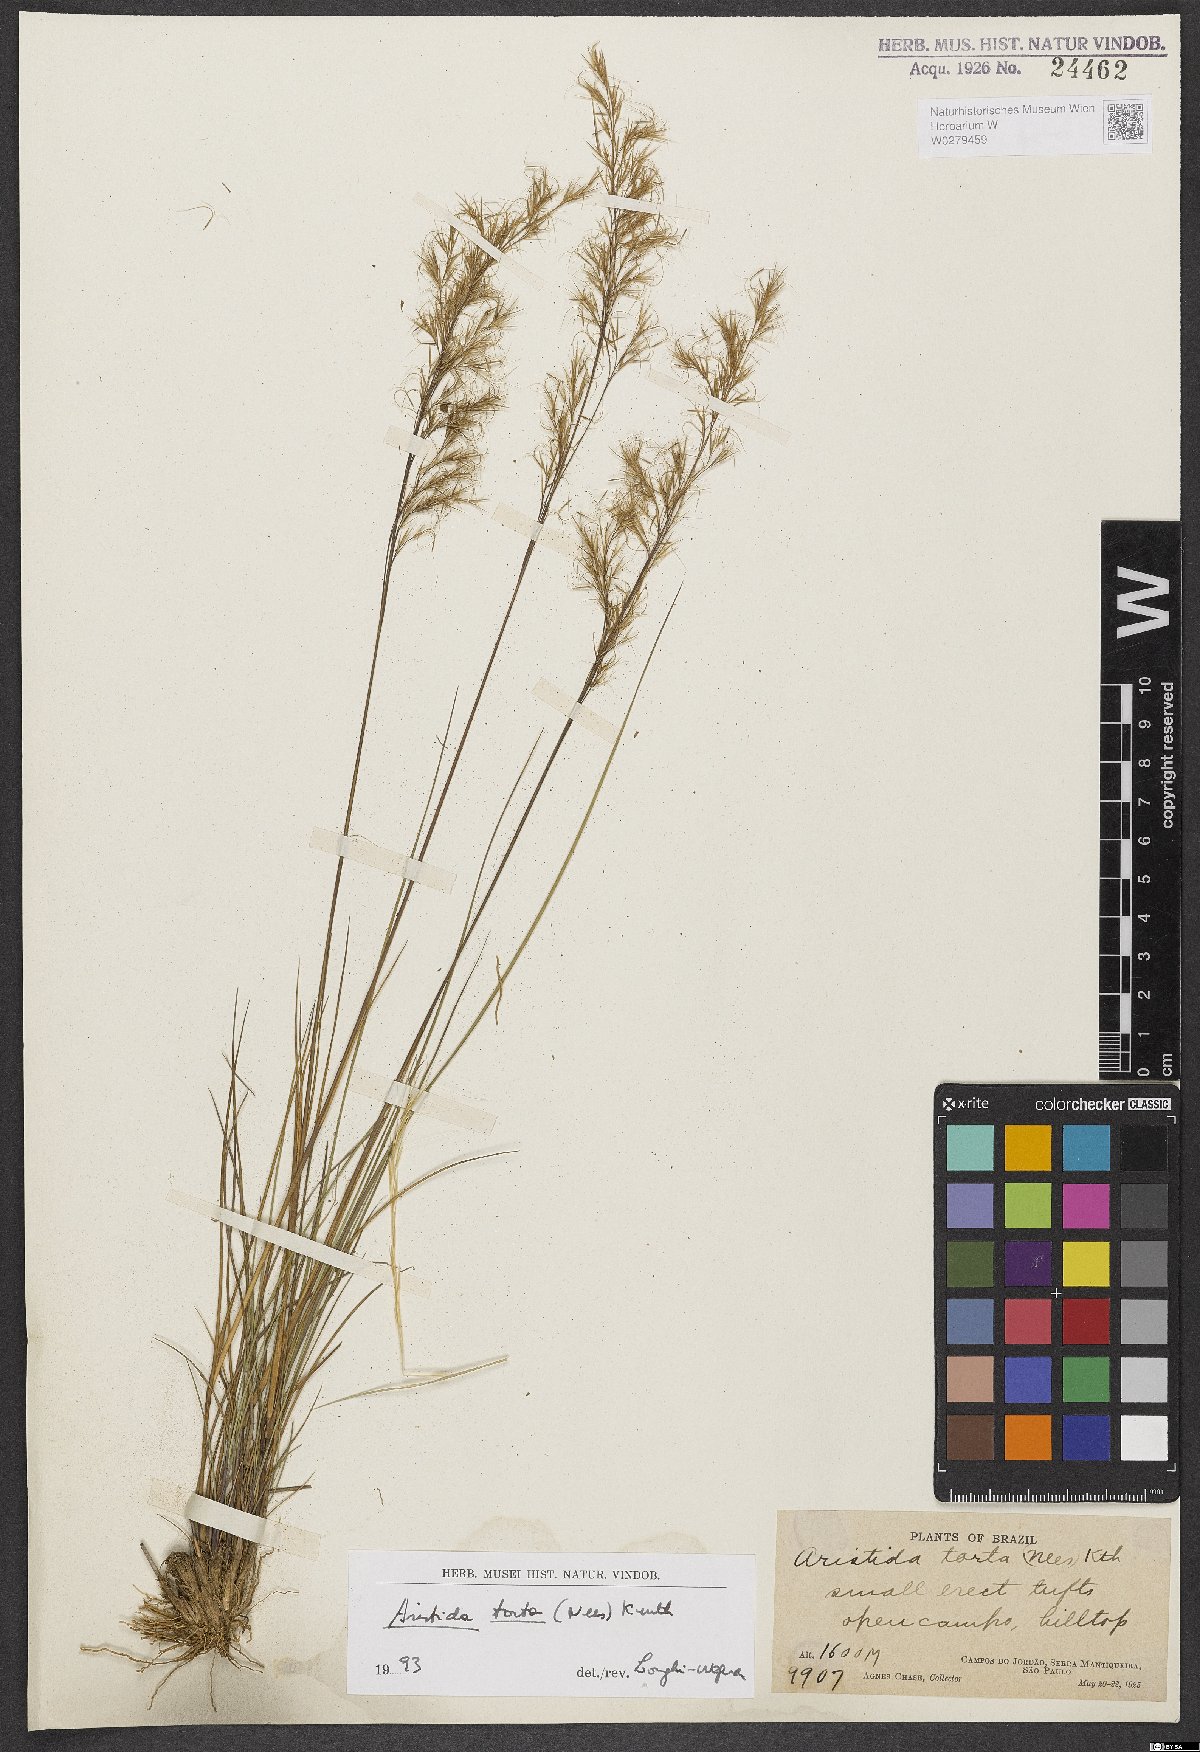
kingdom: Plantae
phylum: Tracheophyta
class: Liliopsida
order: Poales
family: Poaceae
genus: Aristida
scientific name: Aristida torta
